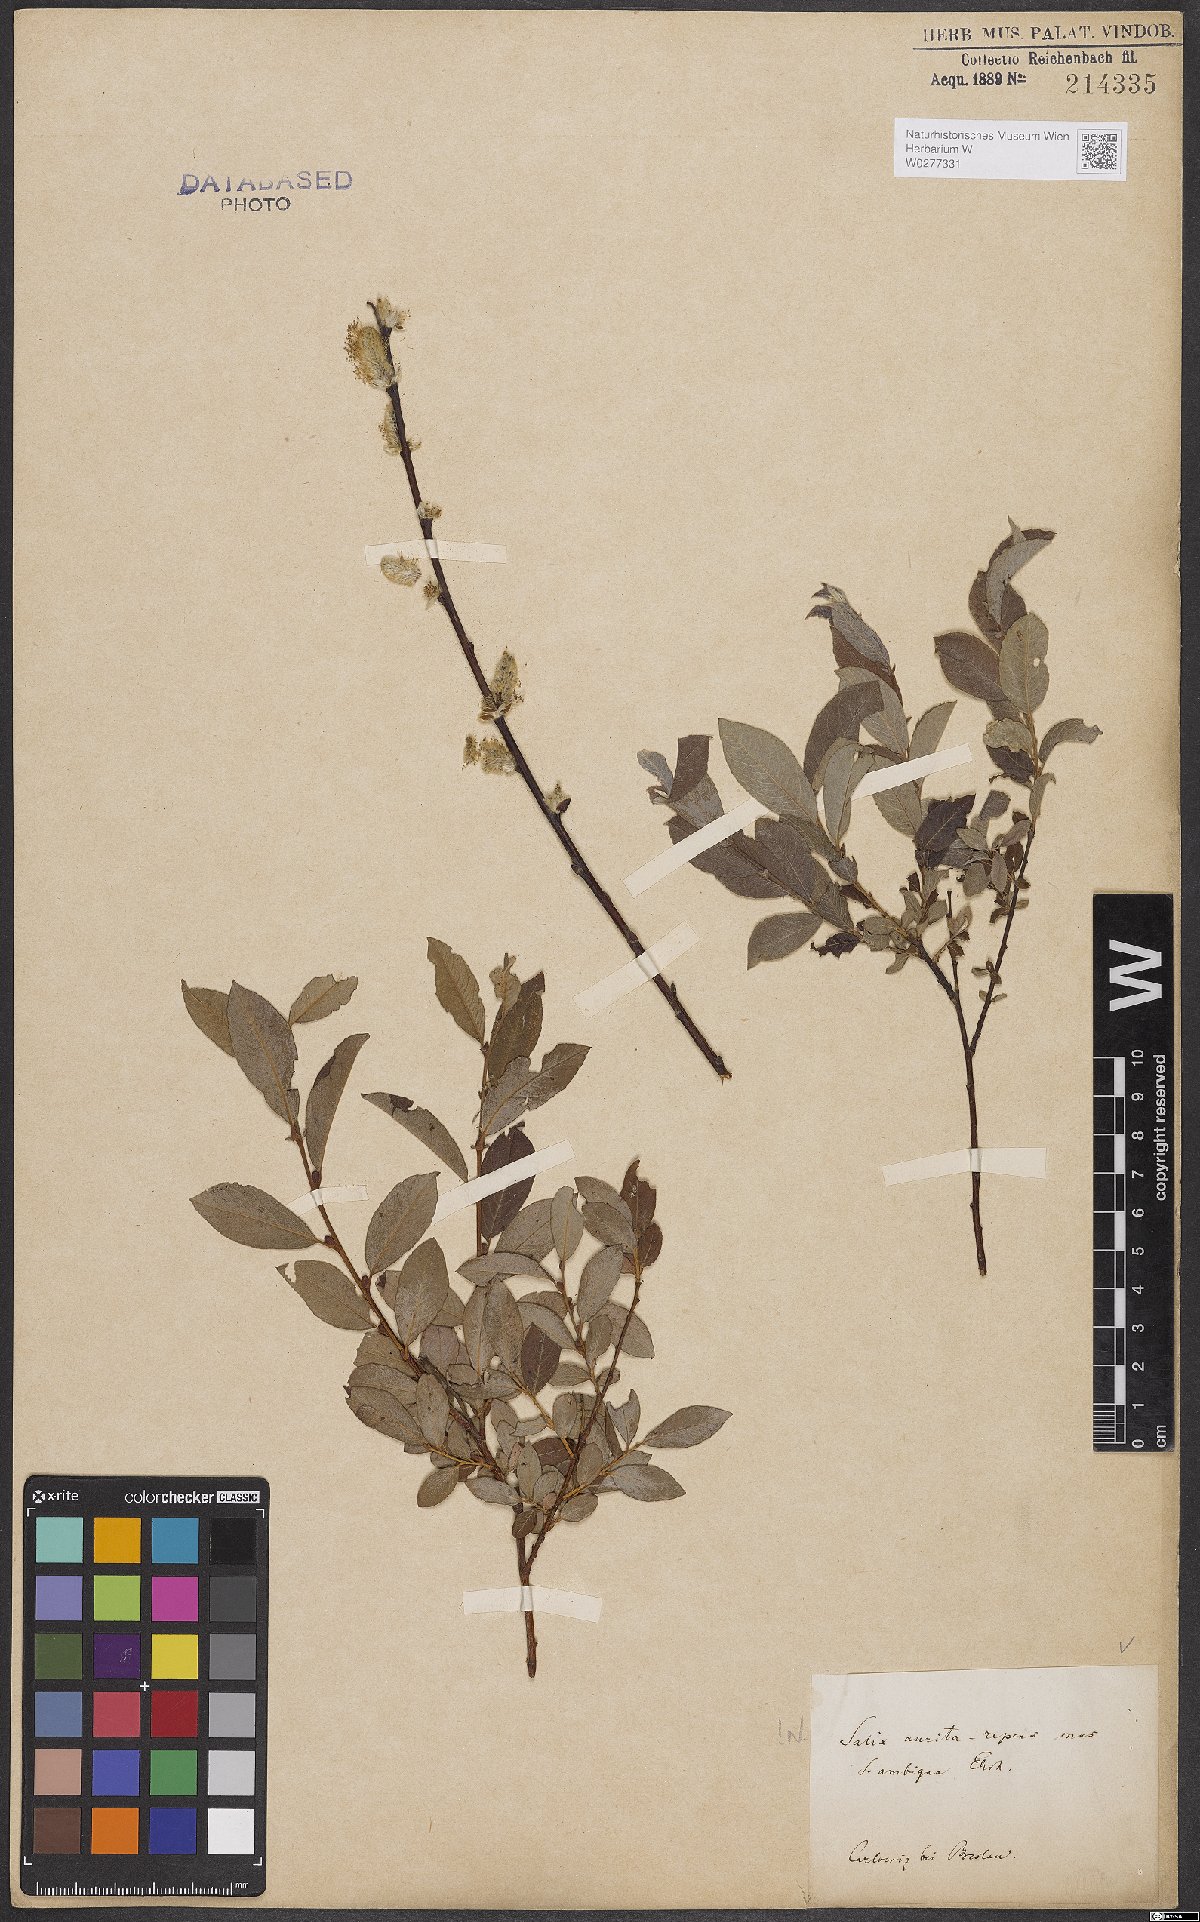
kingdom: Plantae
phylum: Tracheophyta
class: Magnoliopsida
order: Malpighiales
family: Salicaceae
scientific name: Salicaceae
